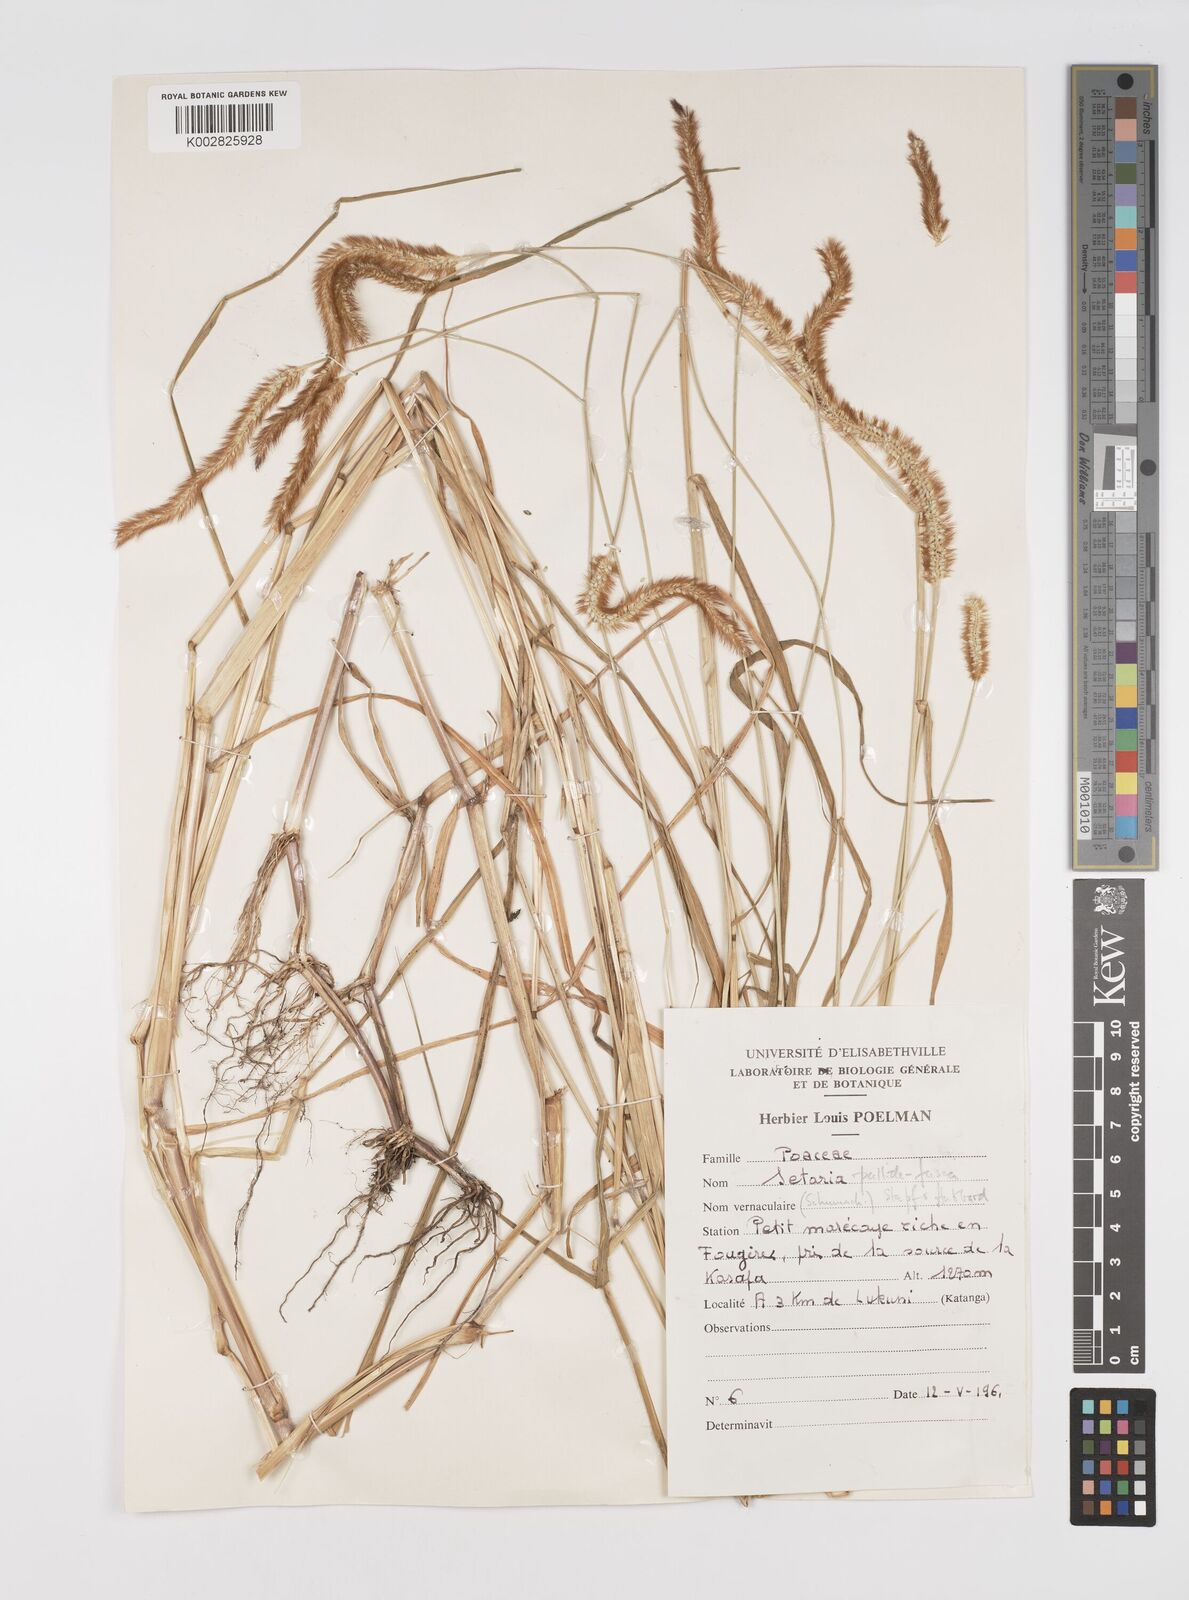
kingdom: Plantae
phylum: Tracheophyta
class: Liliopsida
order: Poales
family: Poaceae
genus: Setaria
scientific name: Setaria pumila
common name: Yellow bristle-grass
